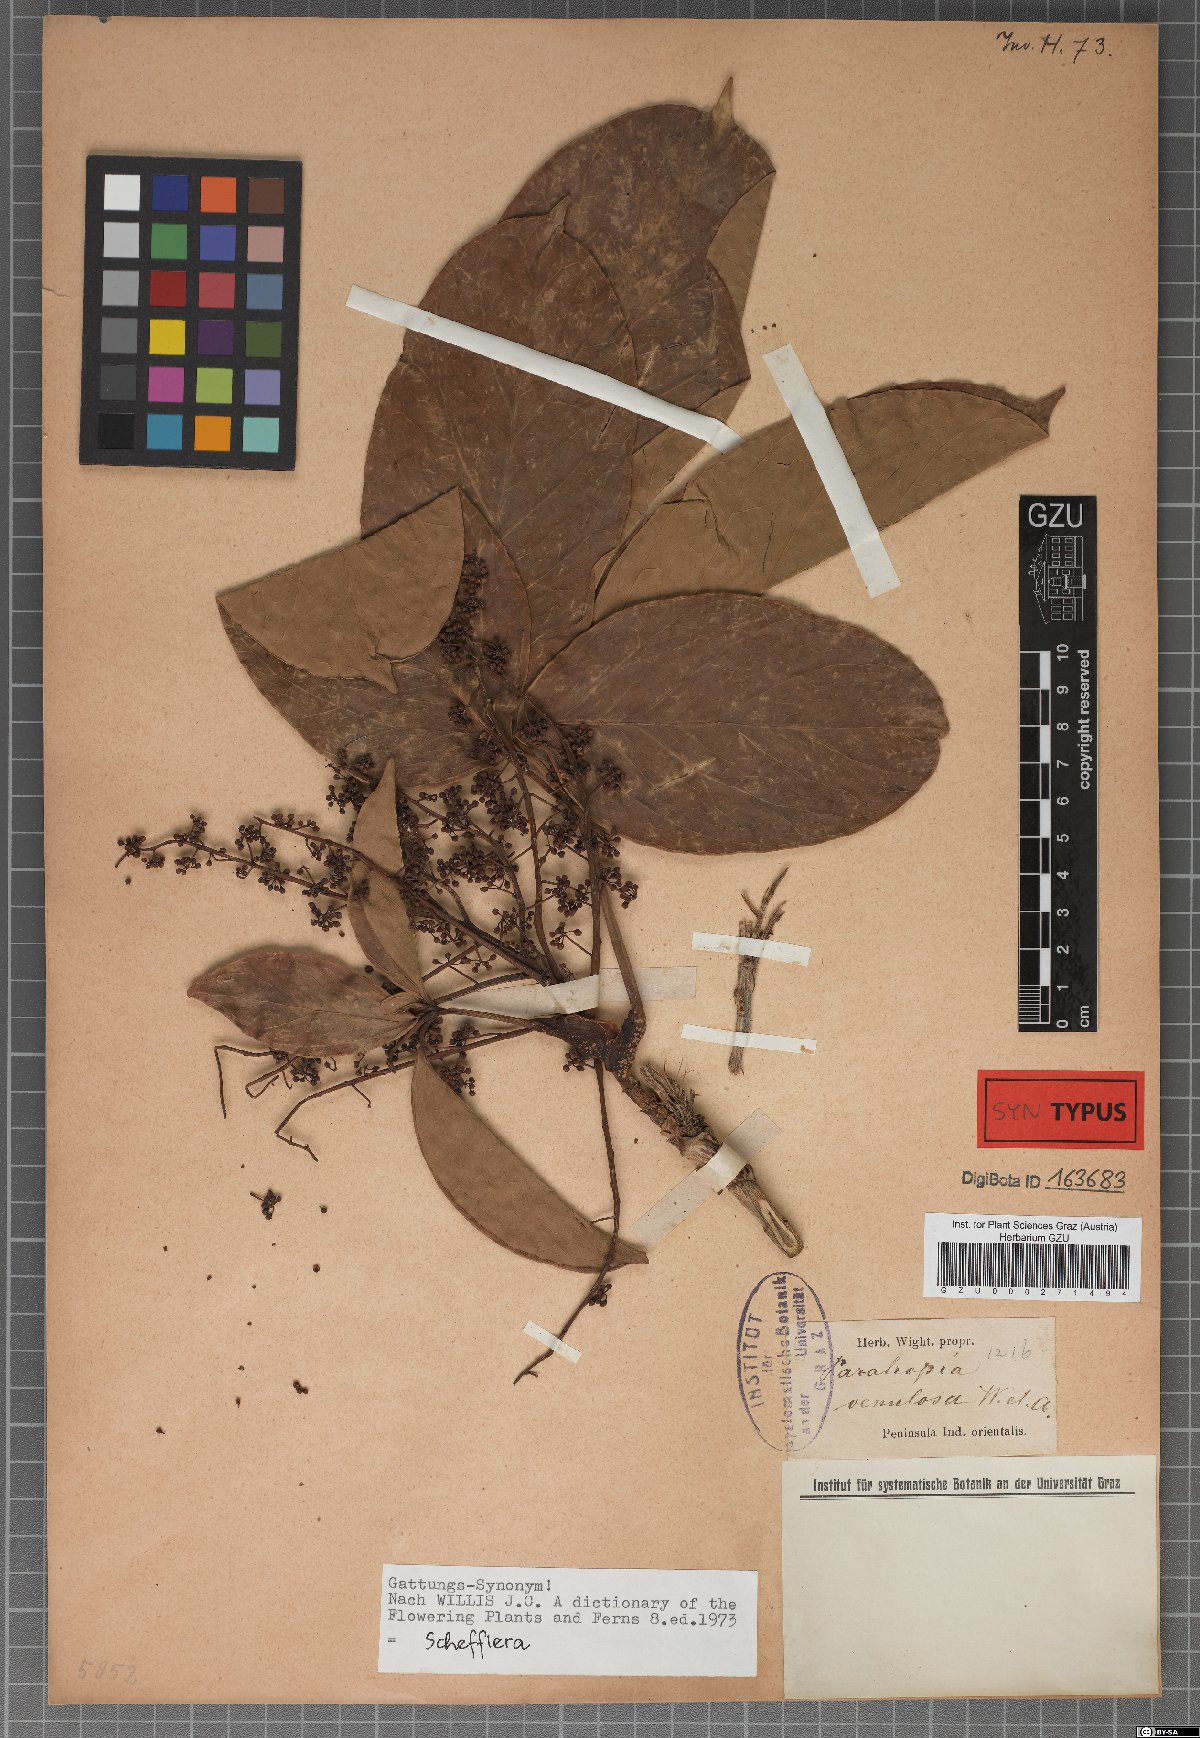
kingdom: Plantae
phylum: Tracheophyta
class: Magnoliopsida
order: Apiales
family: Araliaceae
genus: Heptapleurum
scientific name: Heptapleurum venulosum
